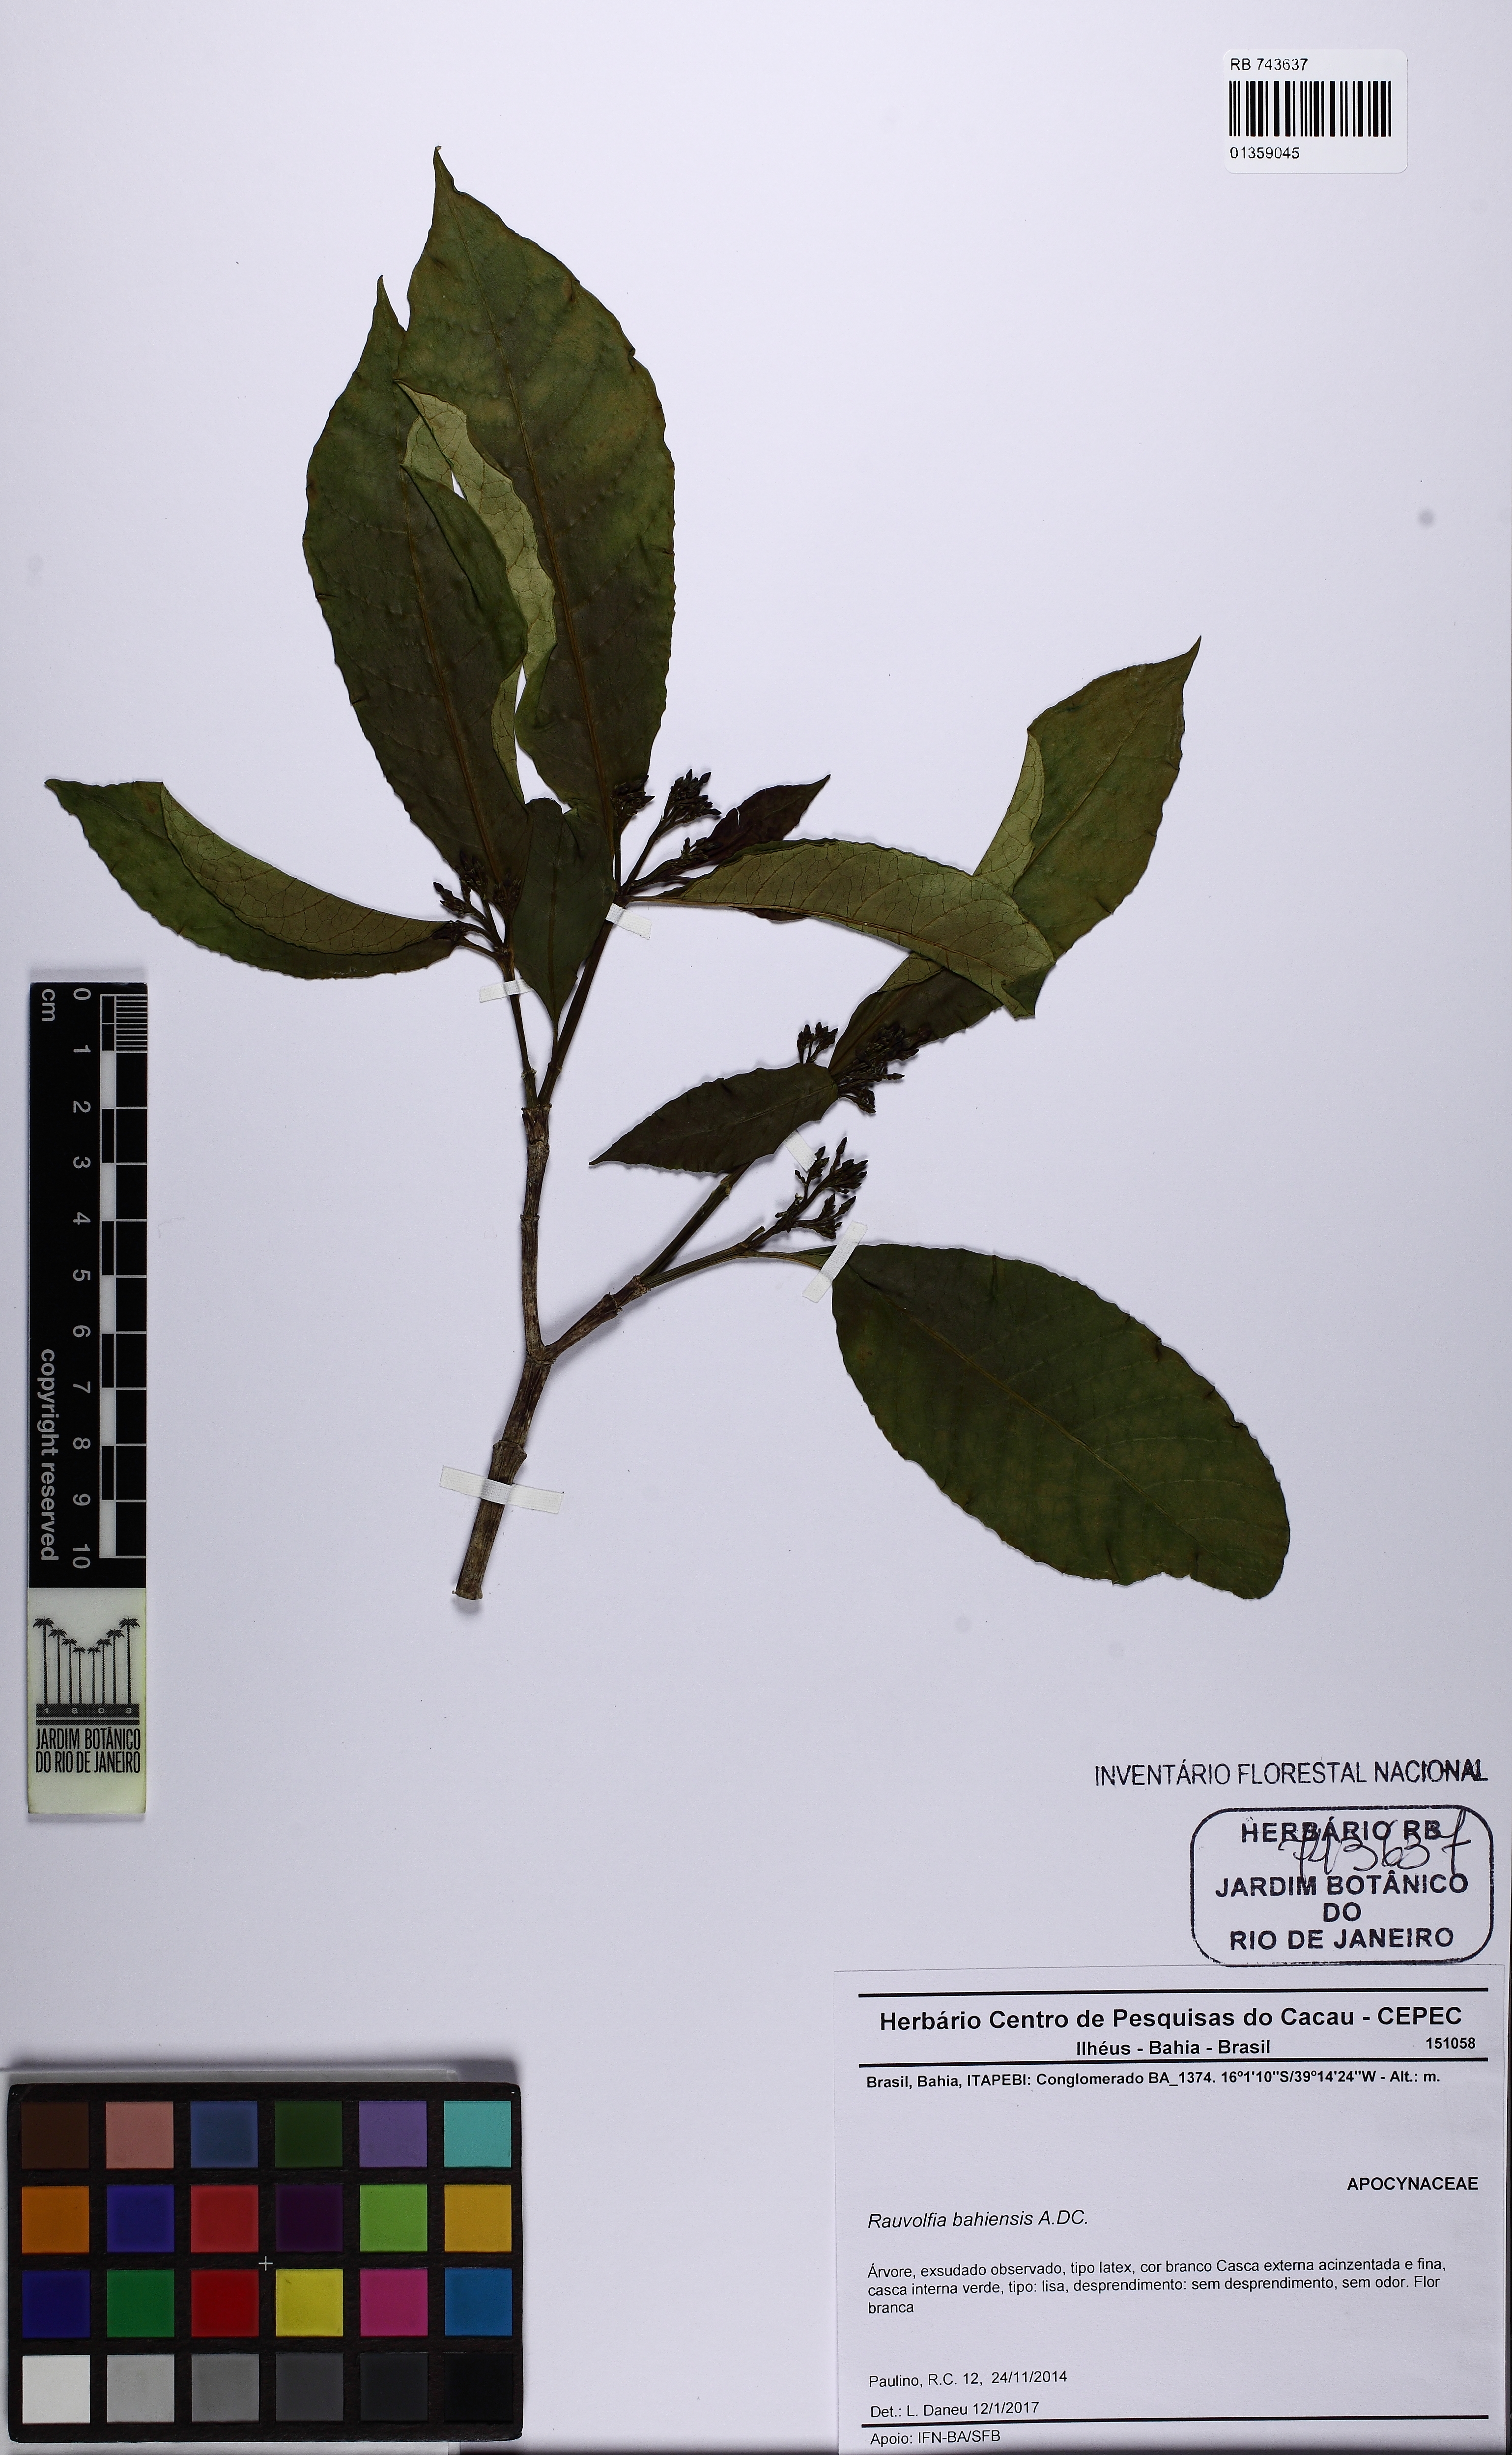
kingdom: Plantae
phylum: Tracheophyta
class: Magnoliopsida
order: Gentianales
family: Apocynaceae
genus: Rauvolfia
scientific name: Rauvolfia bahiensis
